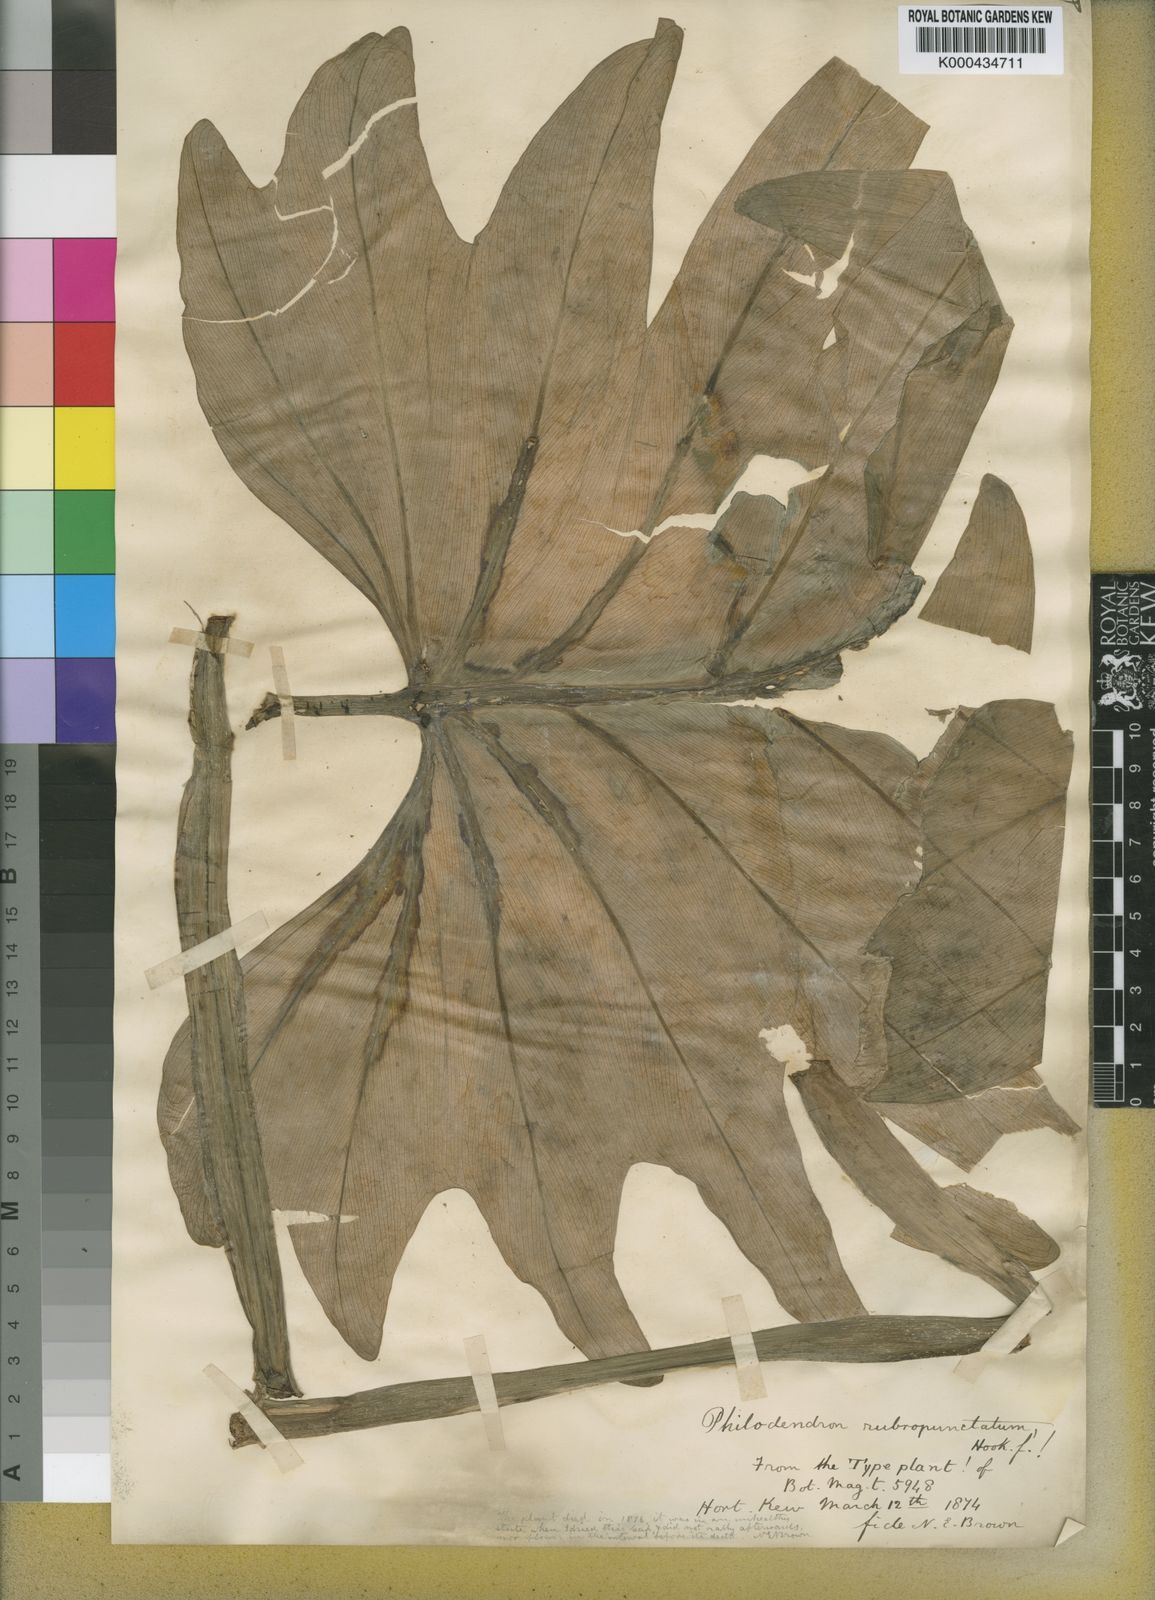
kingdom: Plantae
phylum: Tracheophyta
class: Liliopsida
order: Alismatales
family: Araceae
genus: Philodendron
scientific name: Philodendron pinnatifidum
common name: Comb-leaf philodendron
